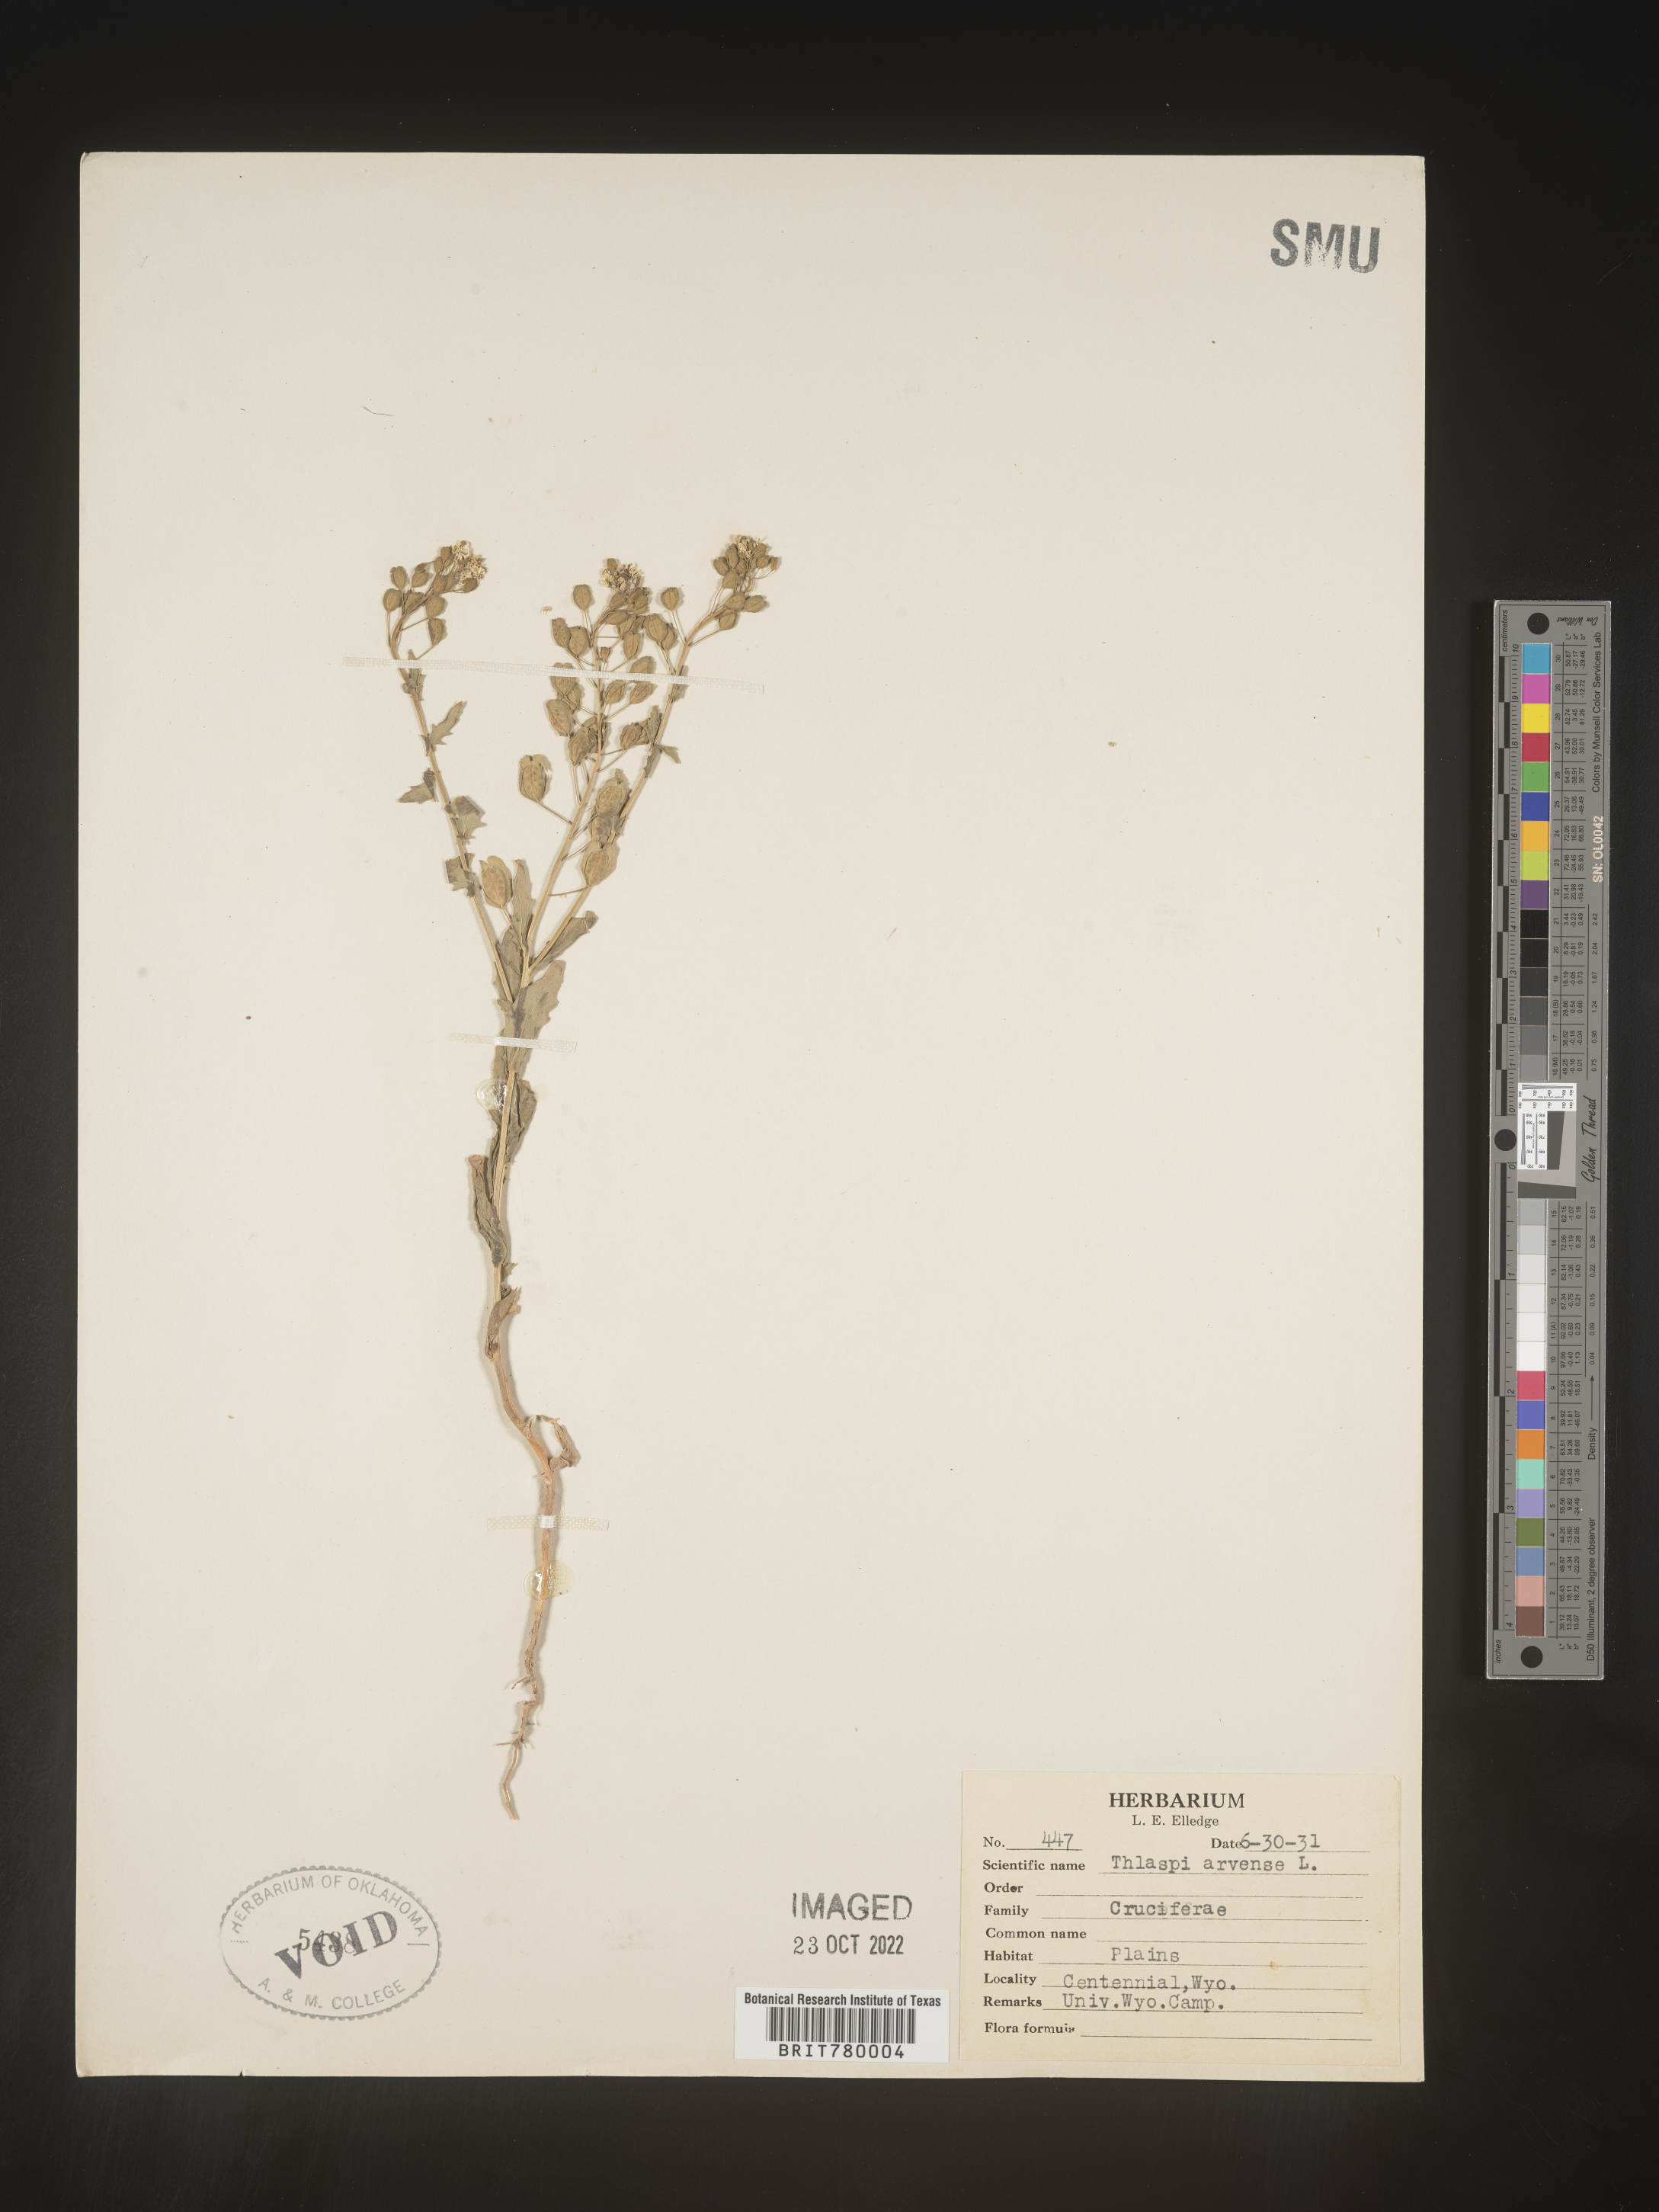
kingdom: Plantae
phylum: Tracheophyta
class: Magnoliopsida
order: Brassicales
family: Brassicaceae
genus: Thlaspi
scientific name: Thlaspi arvense
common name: Field pennycress
